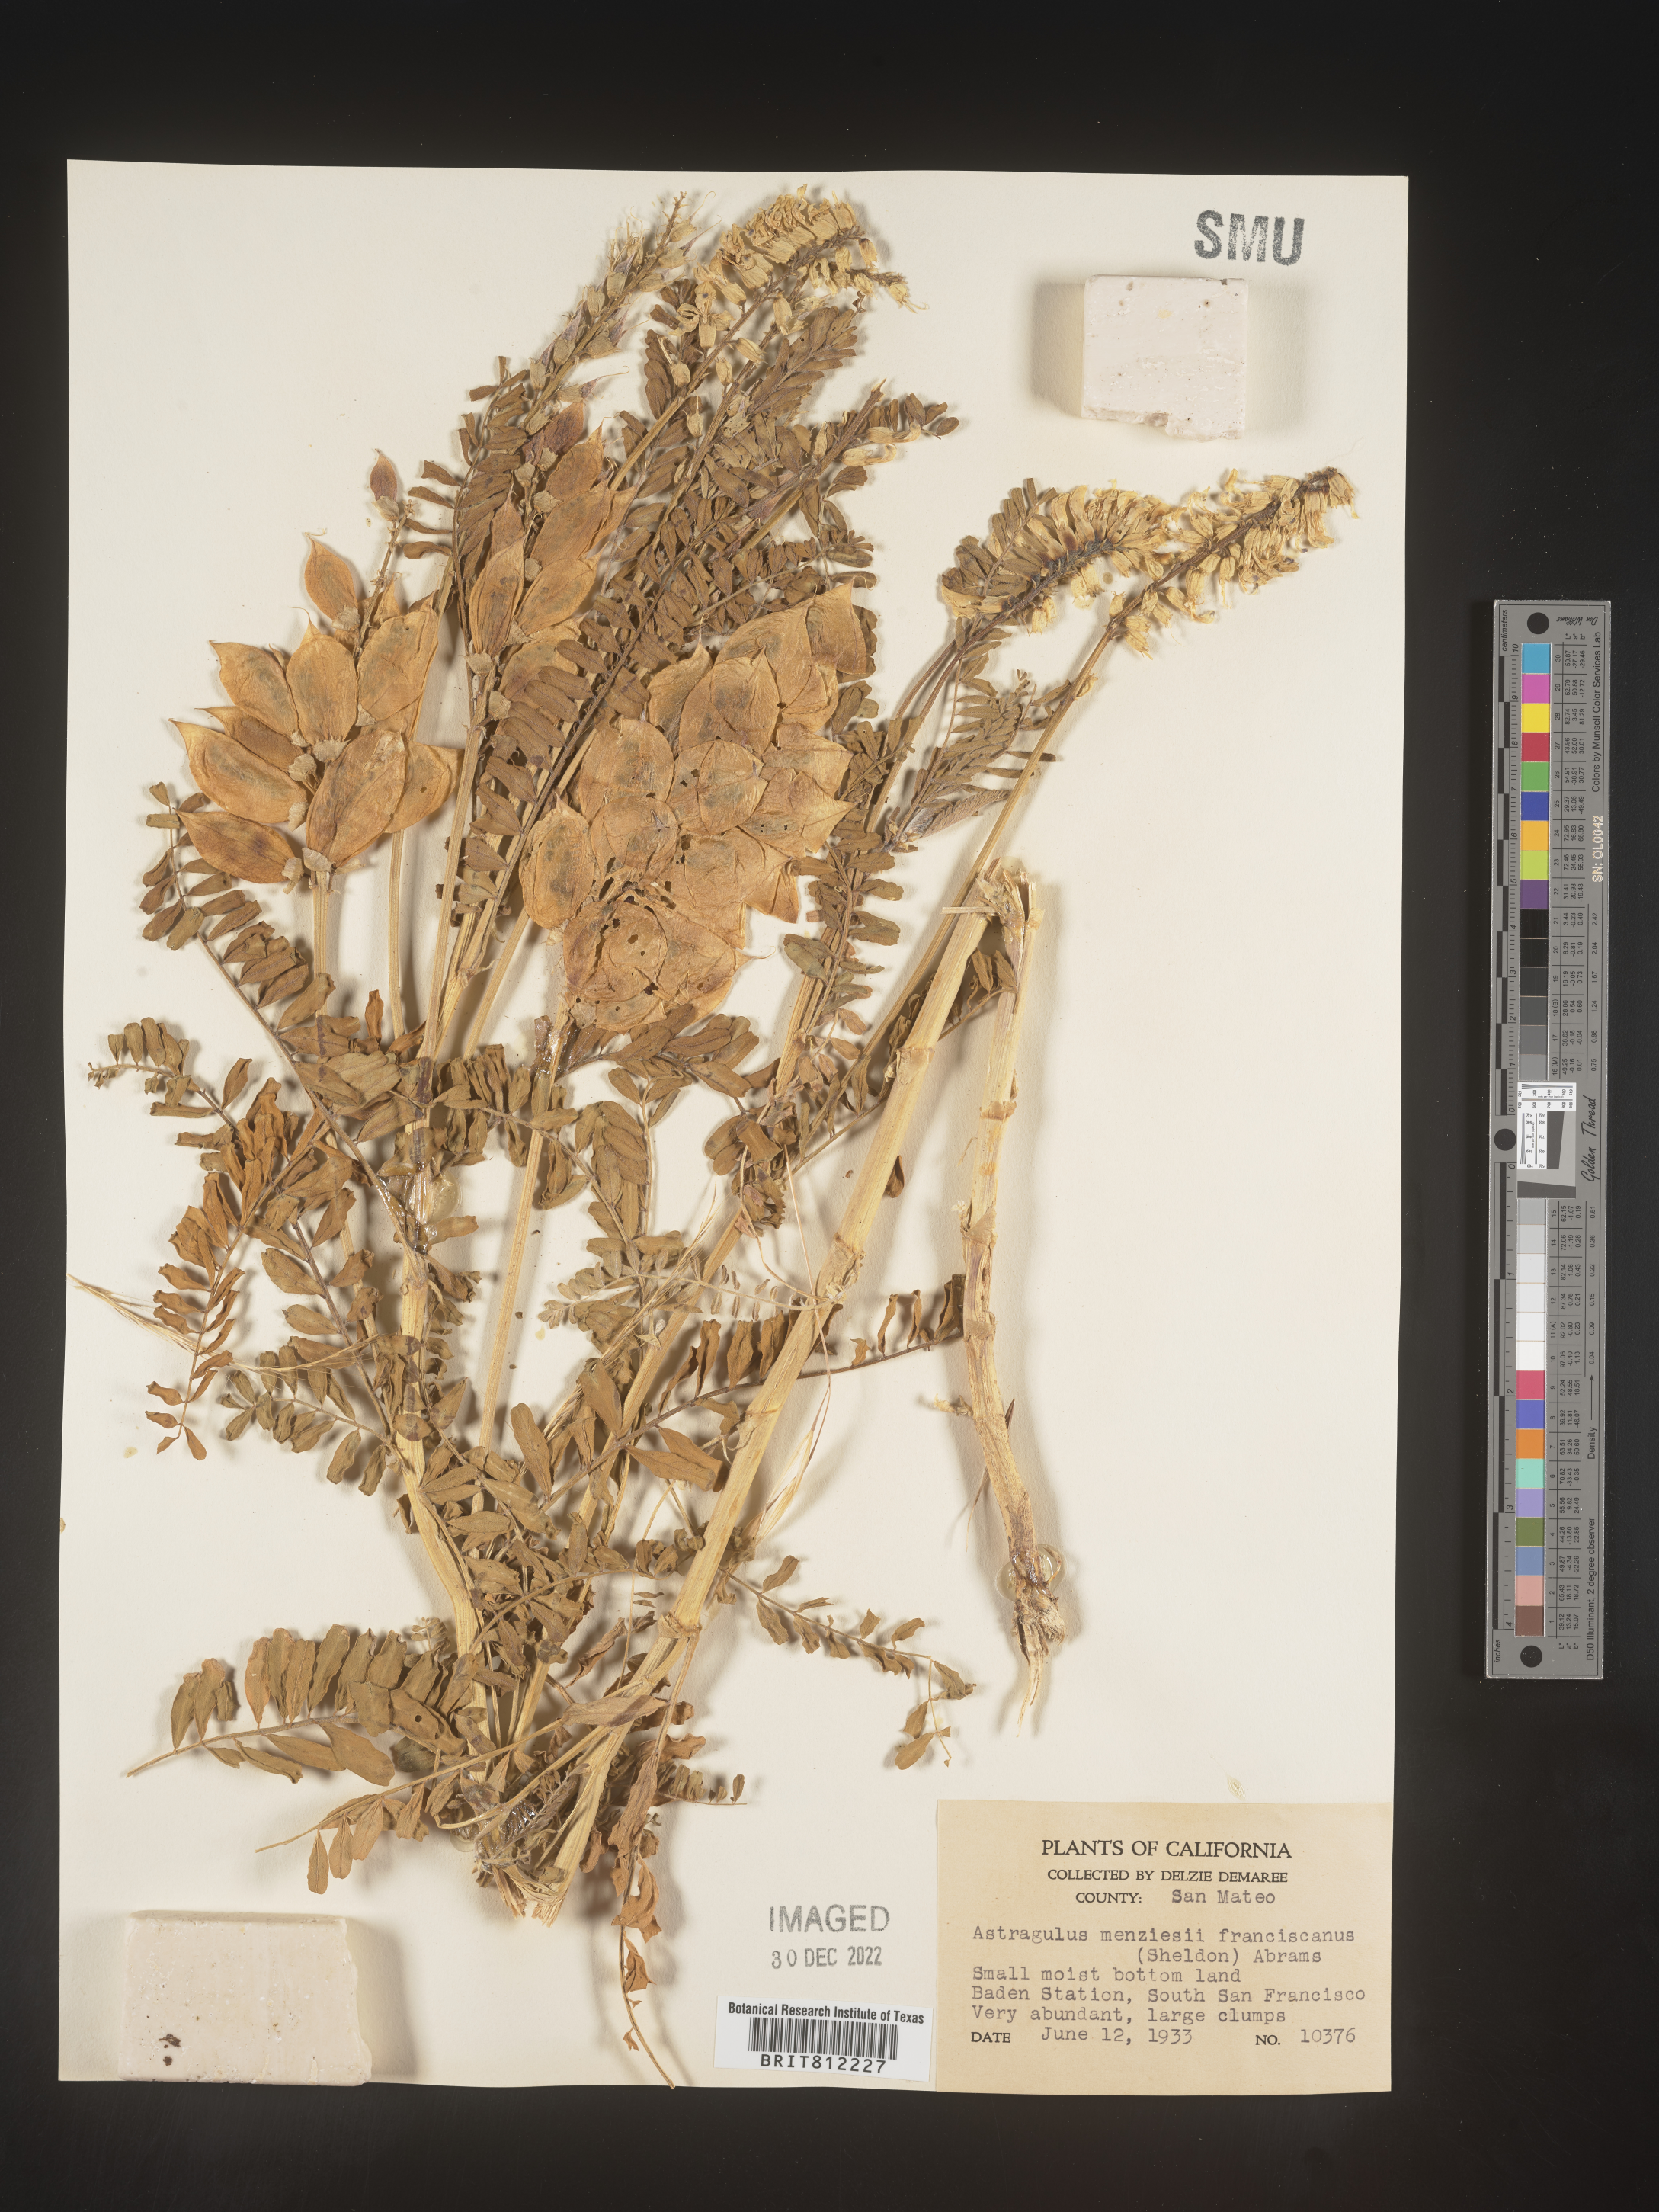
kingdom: Plantae
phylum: Tracheophyta
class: Magnoliopsida
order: Fabales
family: Fabaceae
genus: Astragalus
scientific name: Astragalus
